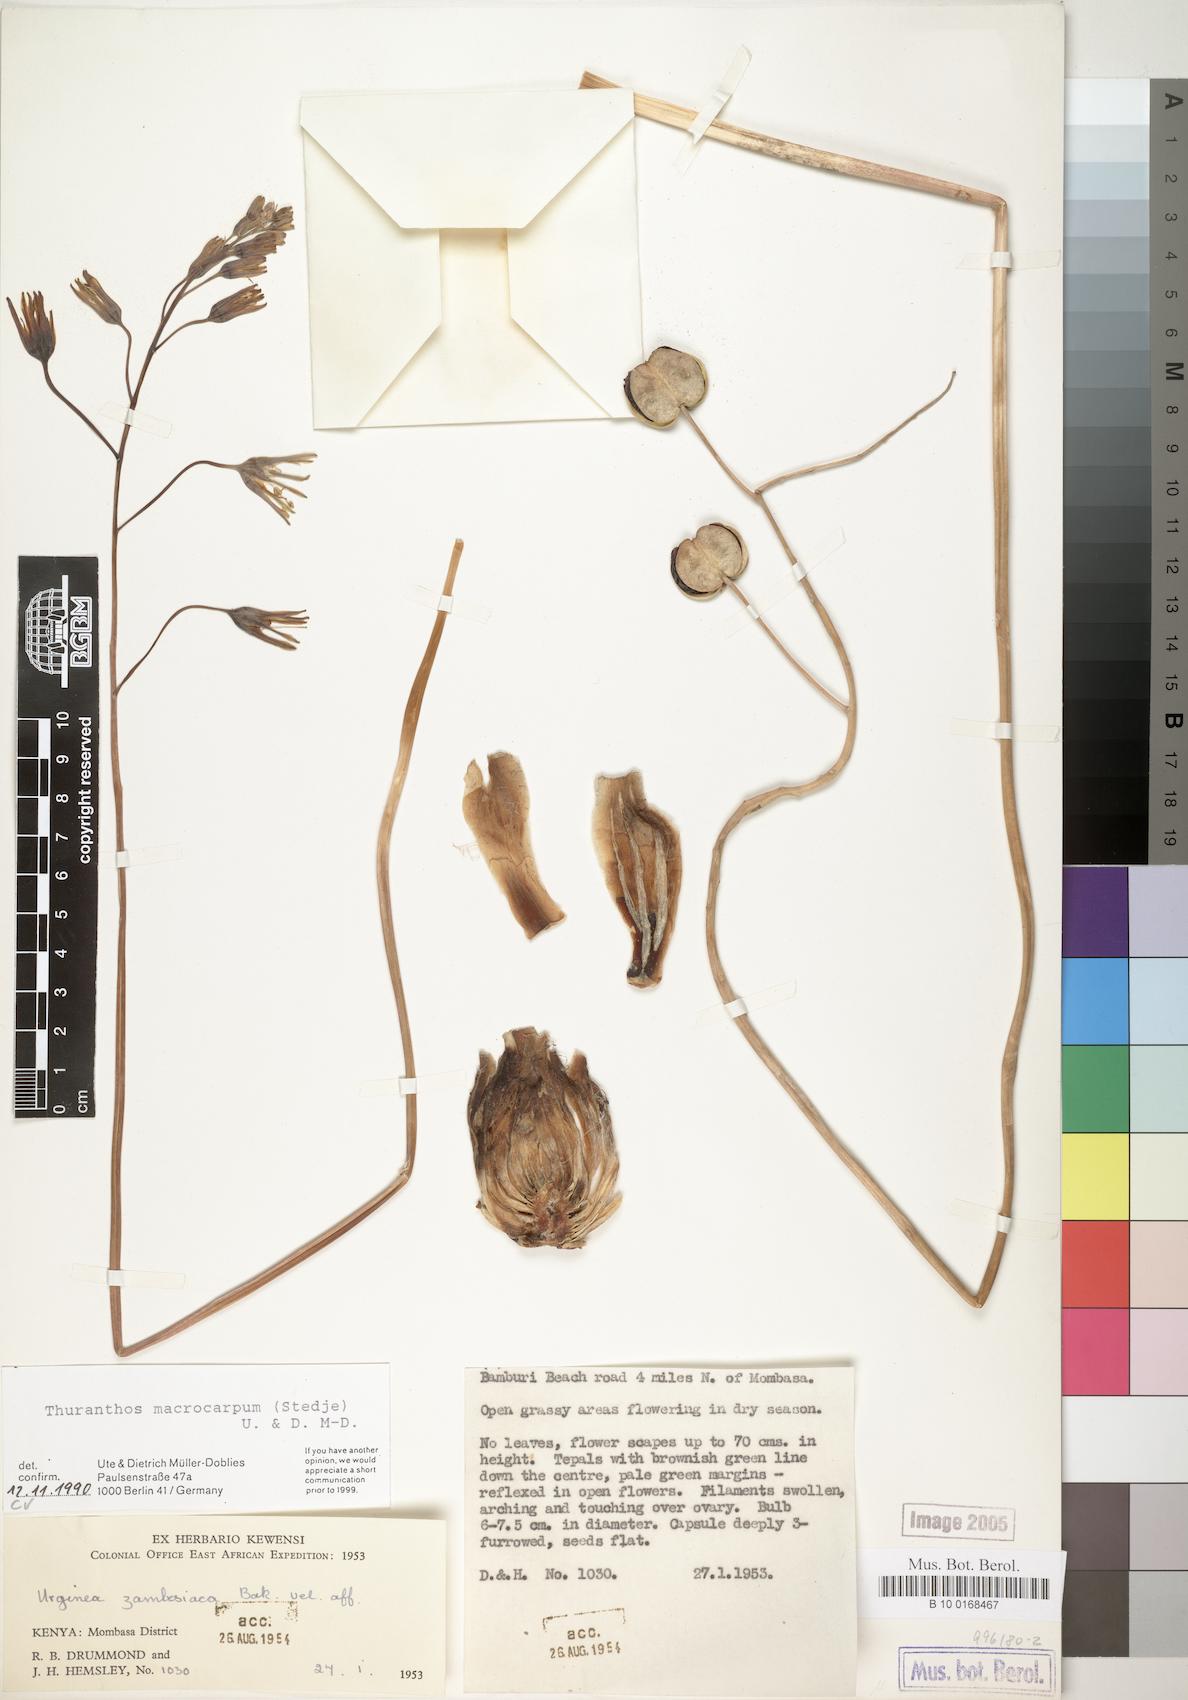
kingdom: Plantae
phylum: Tracheophyta
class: Liliopsida
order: Asparagales
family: Asparagaceae
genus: Drimia
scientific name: Drimia basutica
